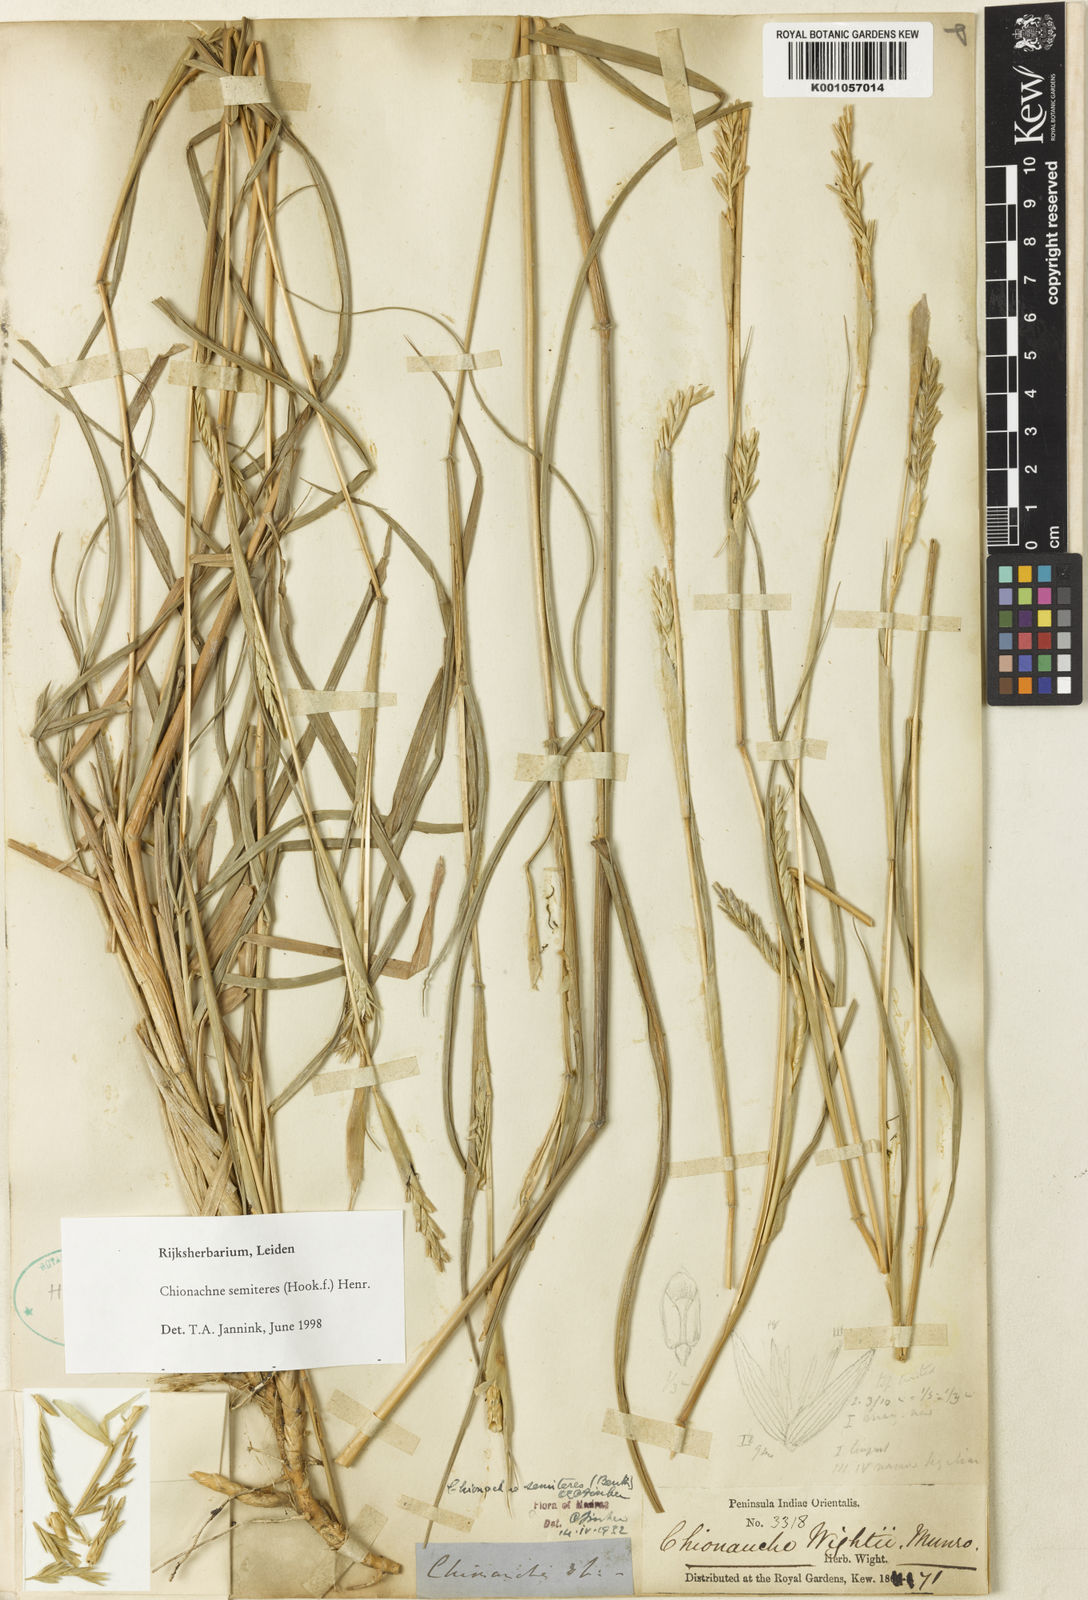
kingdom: Plantae
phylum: Tracheophyta
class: Liliopsida
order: Poales
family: Poaceae
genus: Polytoca
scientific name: Polytoca semiteres
